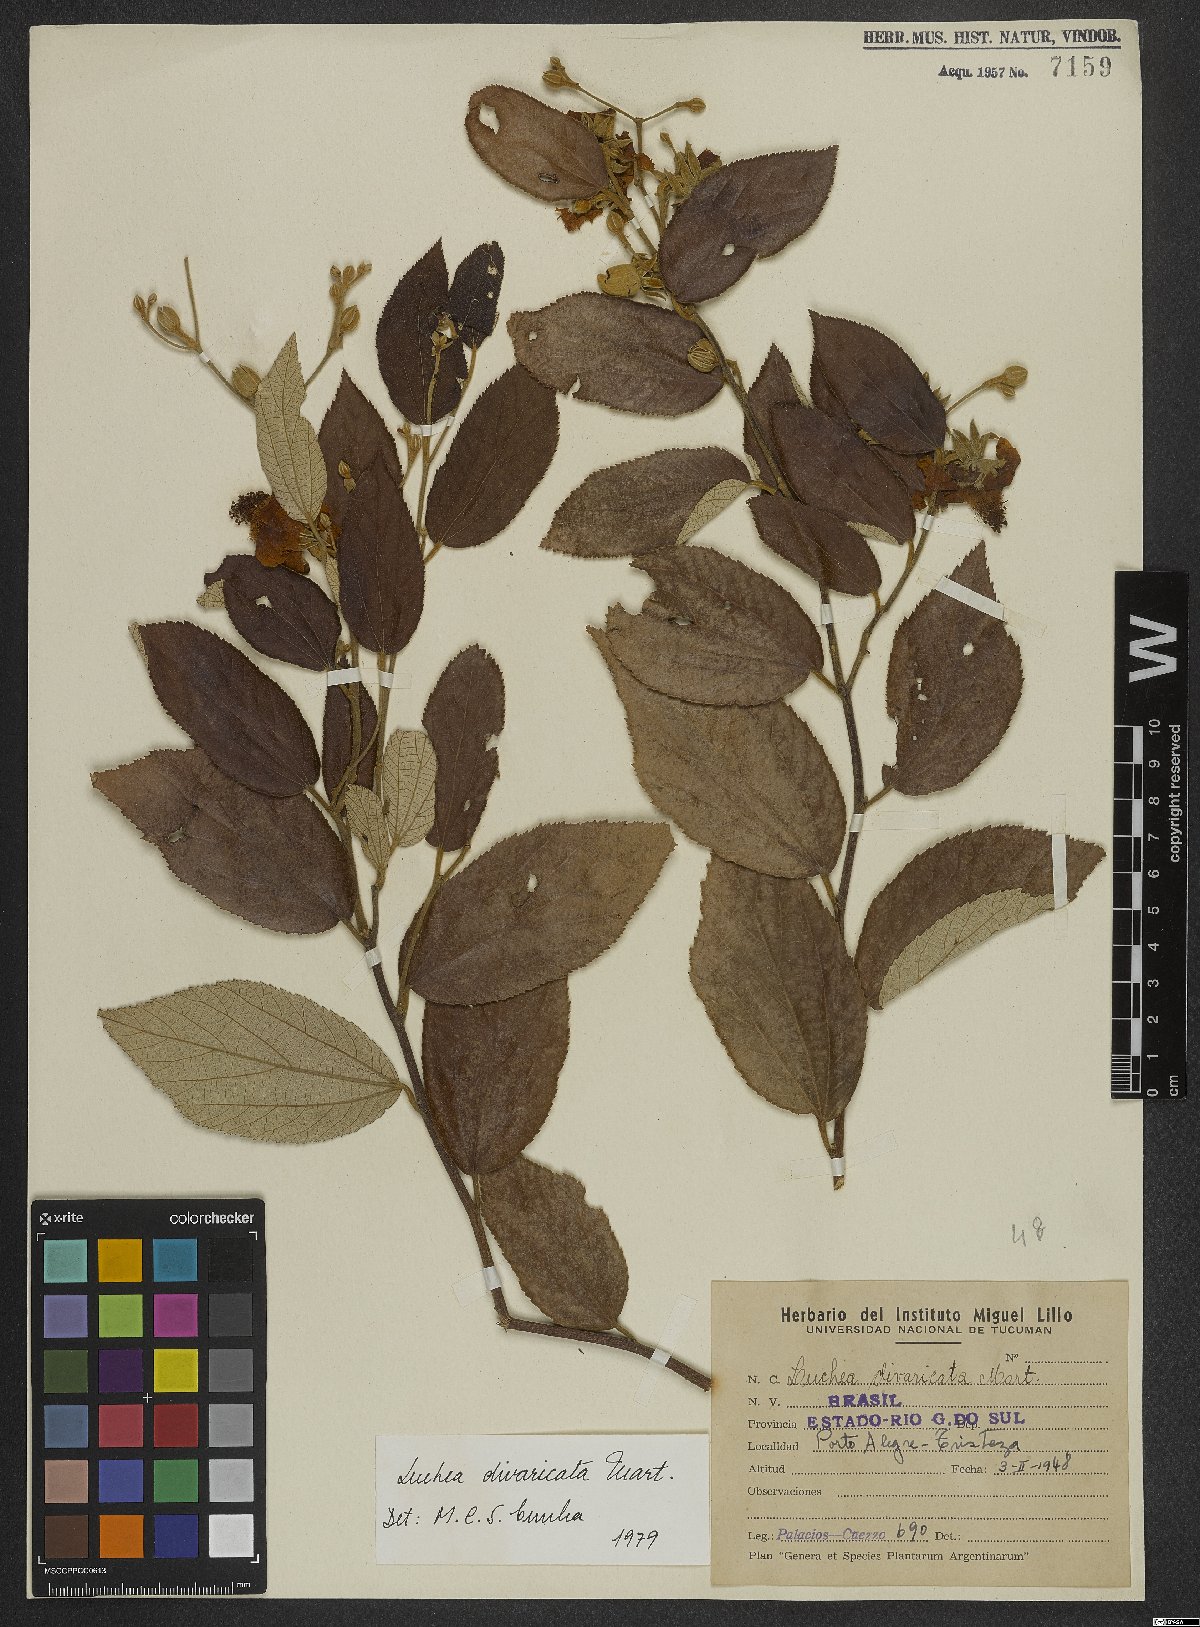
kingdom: Plantae
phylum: Tracheophyta
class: Magnoliopsida
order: Malvales
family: Malvaceae
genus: Luehea
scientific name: Luehea divaricata
